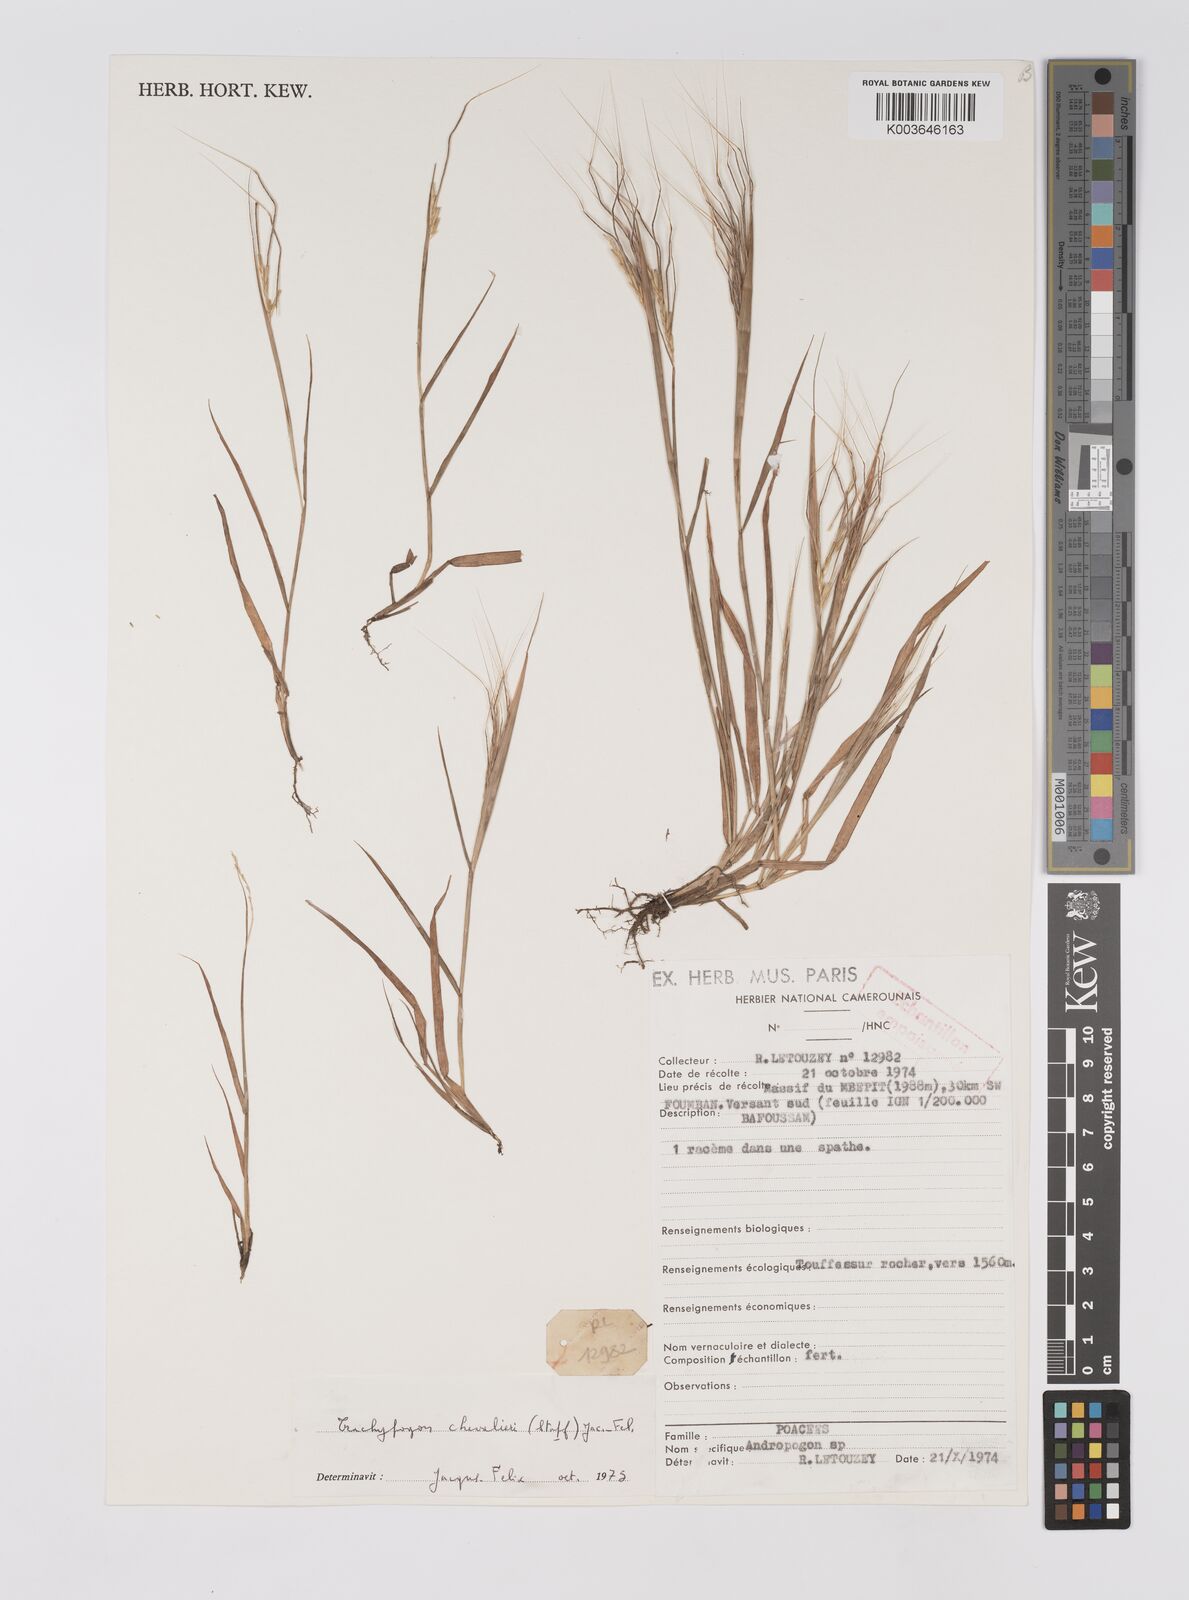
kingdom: Plantae
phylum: Tracheophyta
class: Liliopsida
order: Poales
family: Poaceae
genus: Trachypogon
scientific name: Trachypogon chevalieri
